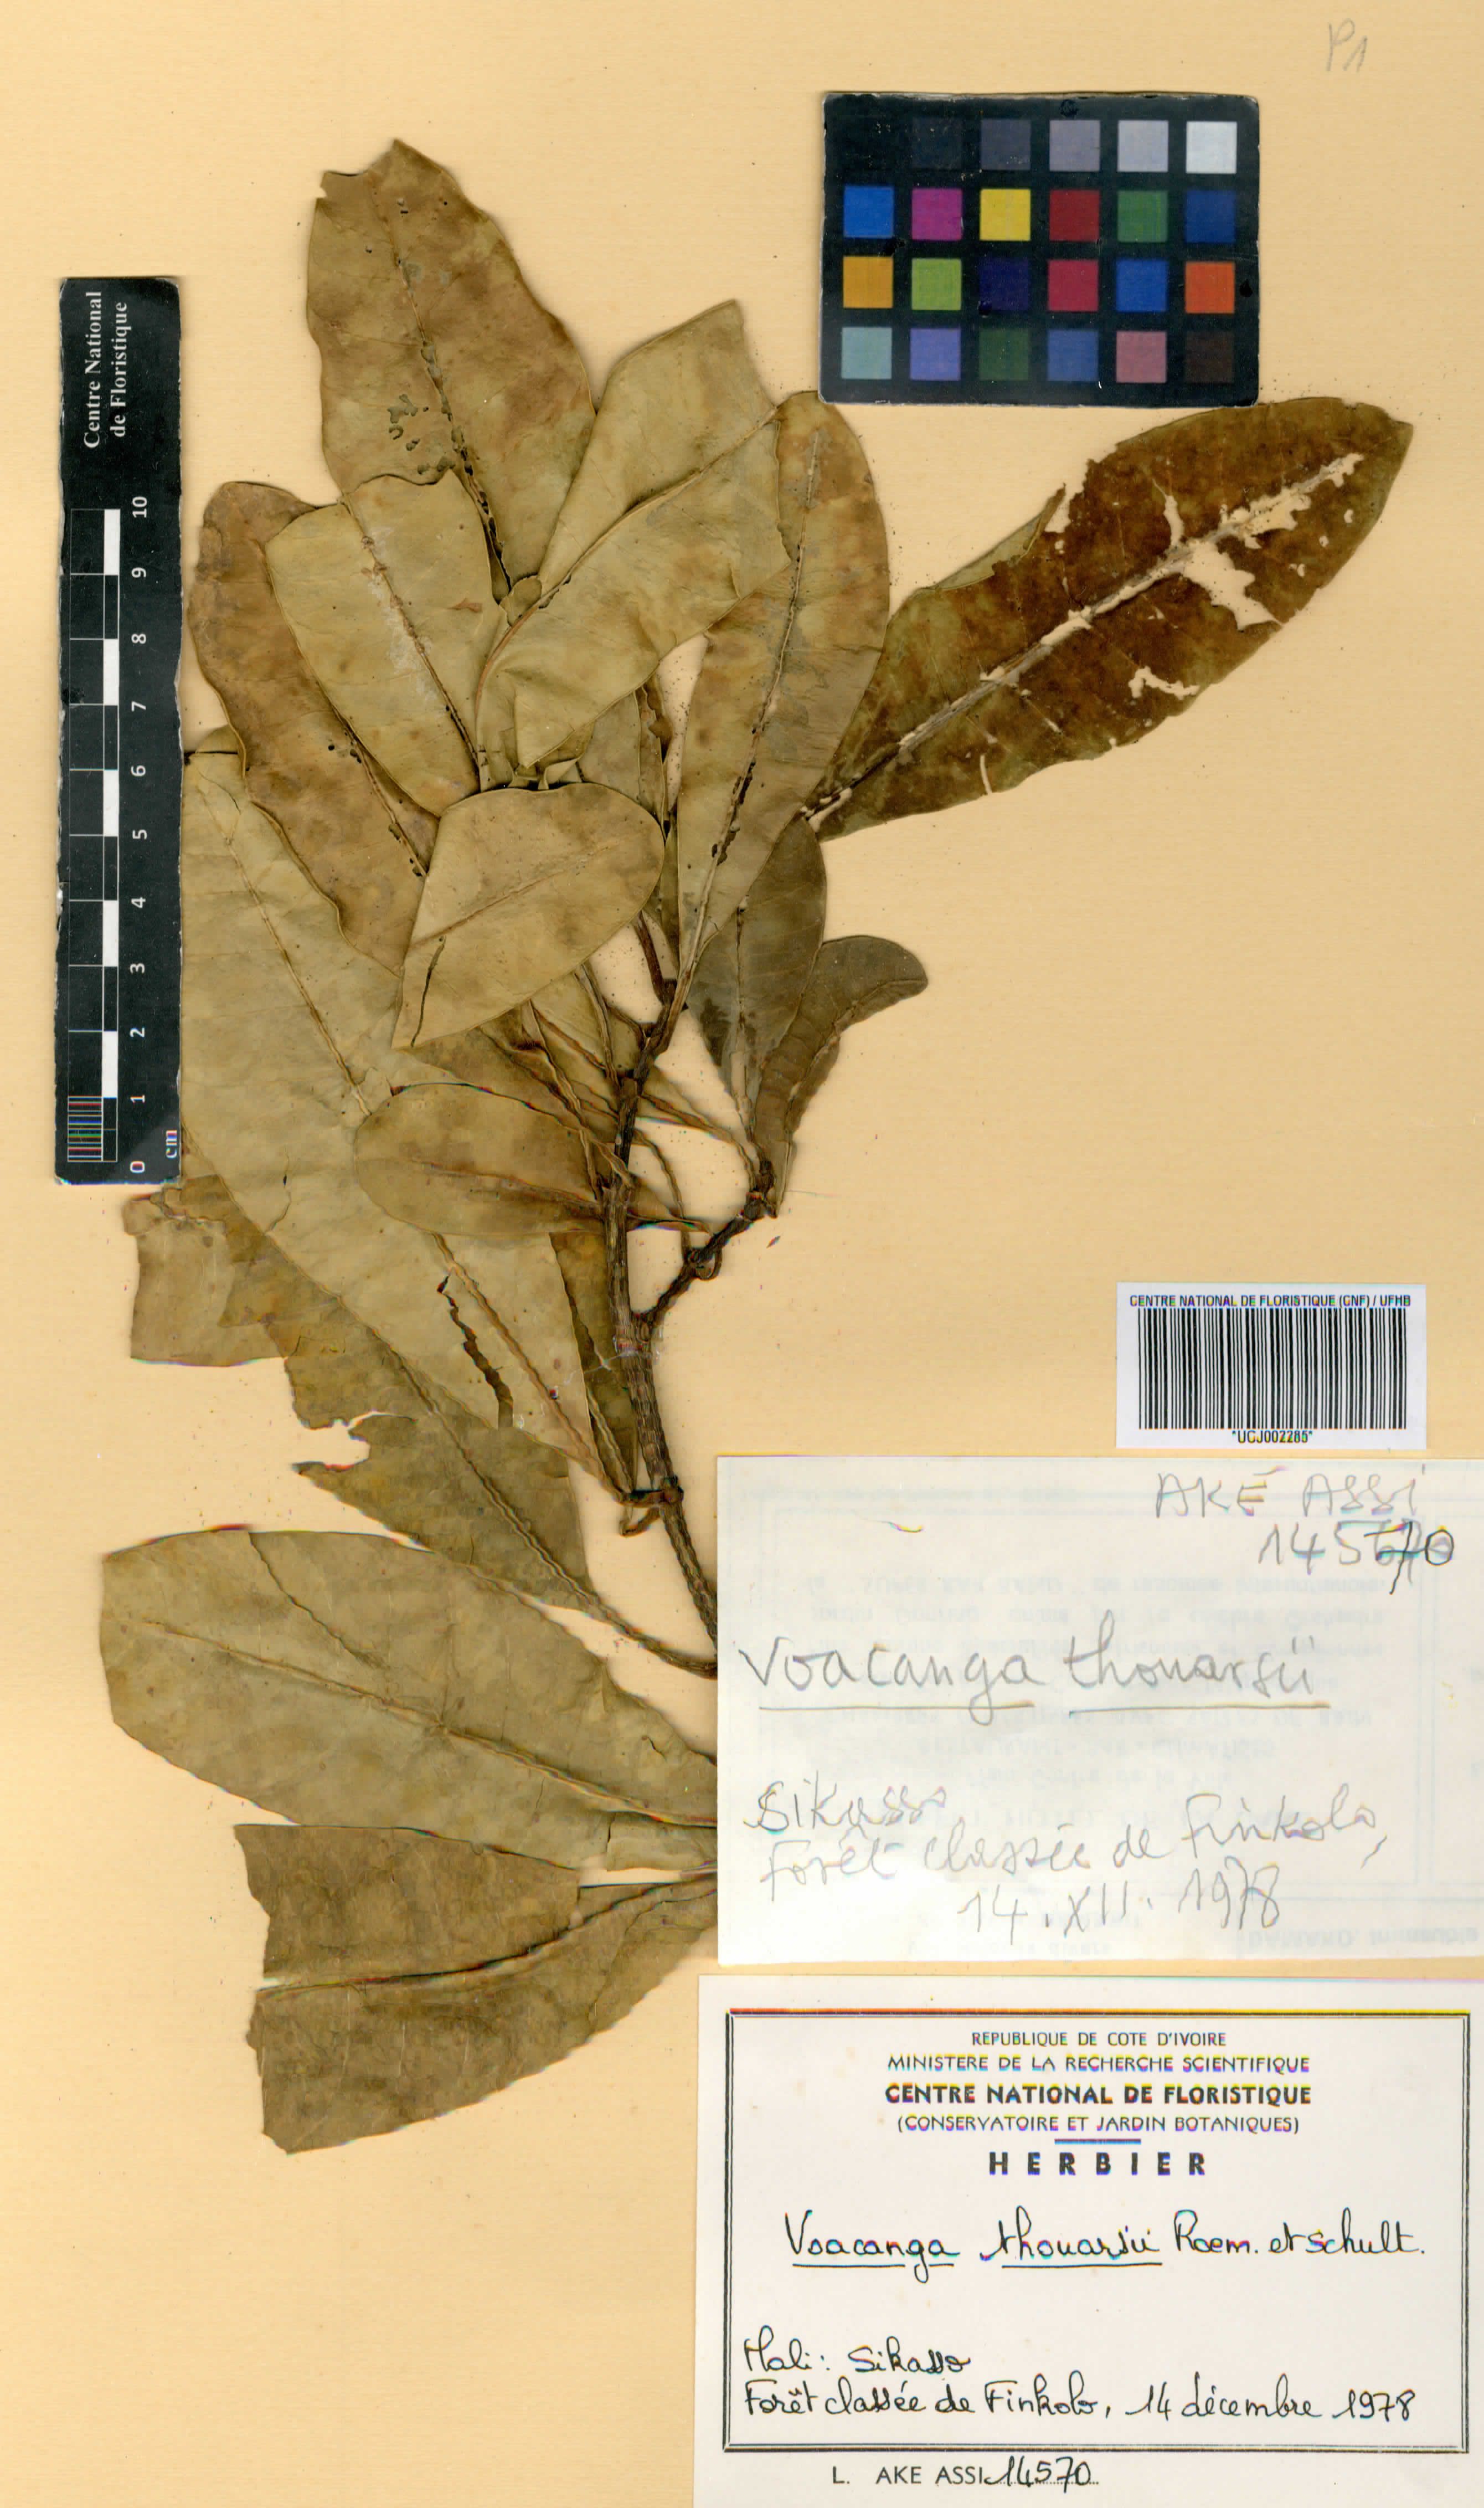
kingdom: Plantae
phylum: Tracheophyta
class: Magnoliopsida
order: Gentianales
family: Apocynaceae
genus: Voacanga
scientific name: Voacanga thouarsii
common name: Wild frangipani
